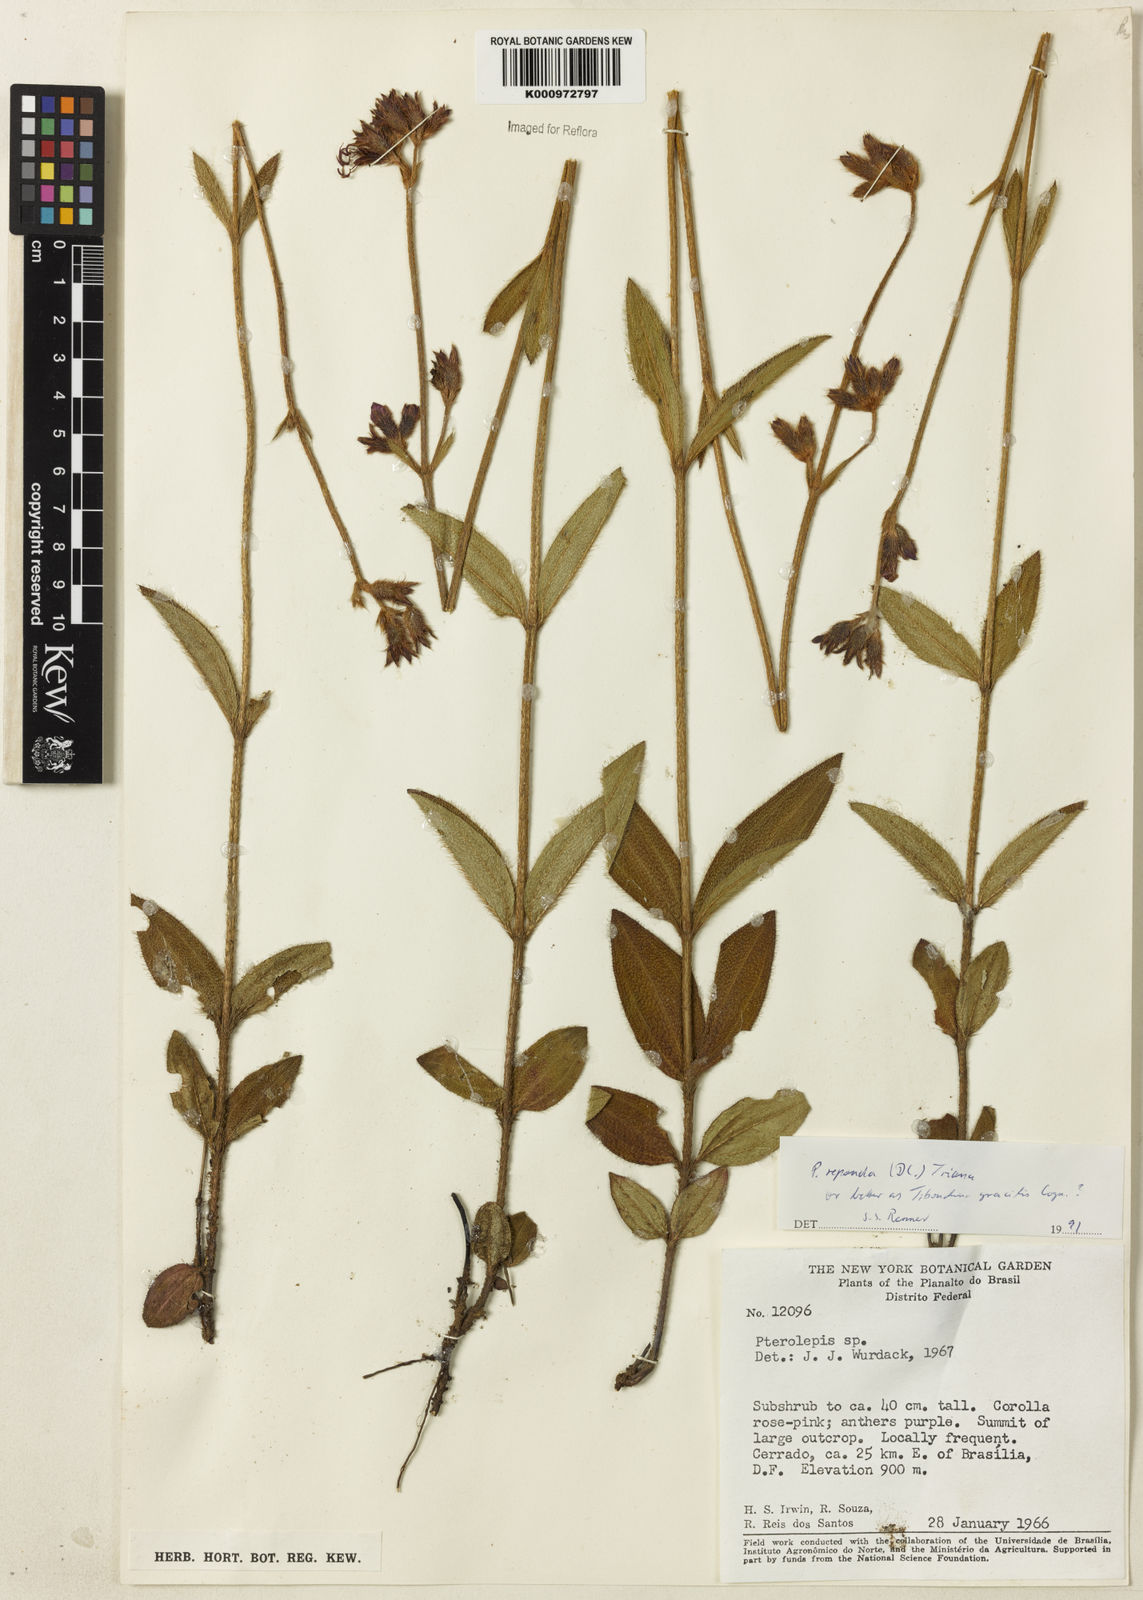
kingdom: Plantae
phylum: Tracheophyta
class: Magnoliopsida
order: Myrtales
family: Melastomataceae
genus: Chaetogastra
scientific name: Chaetogastra gracilis
